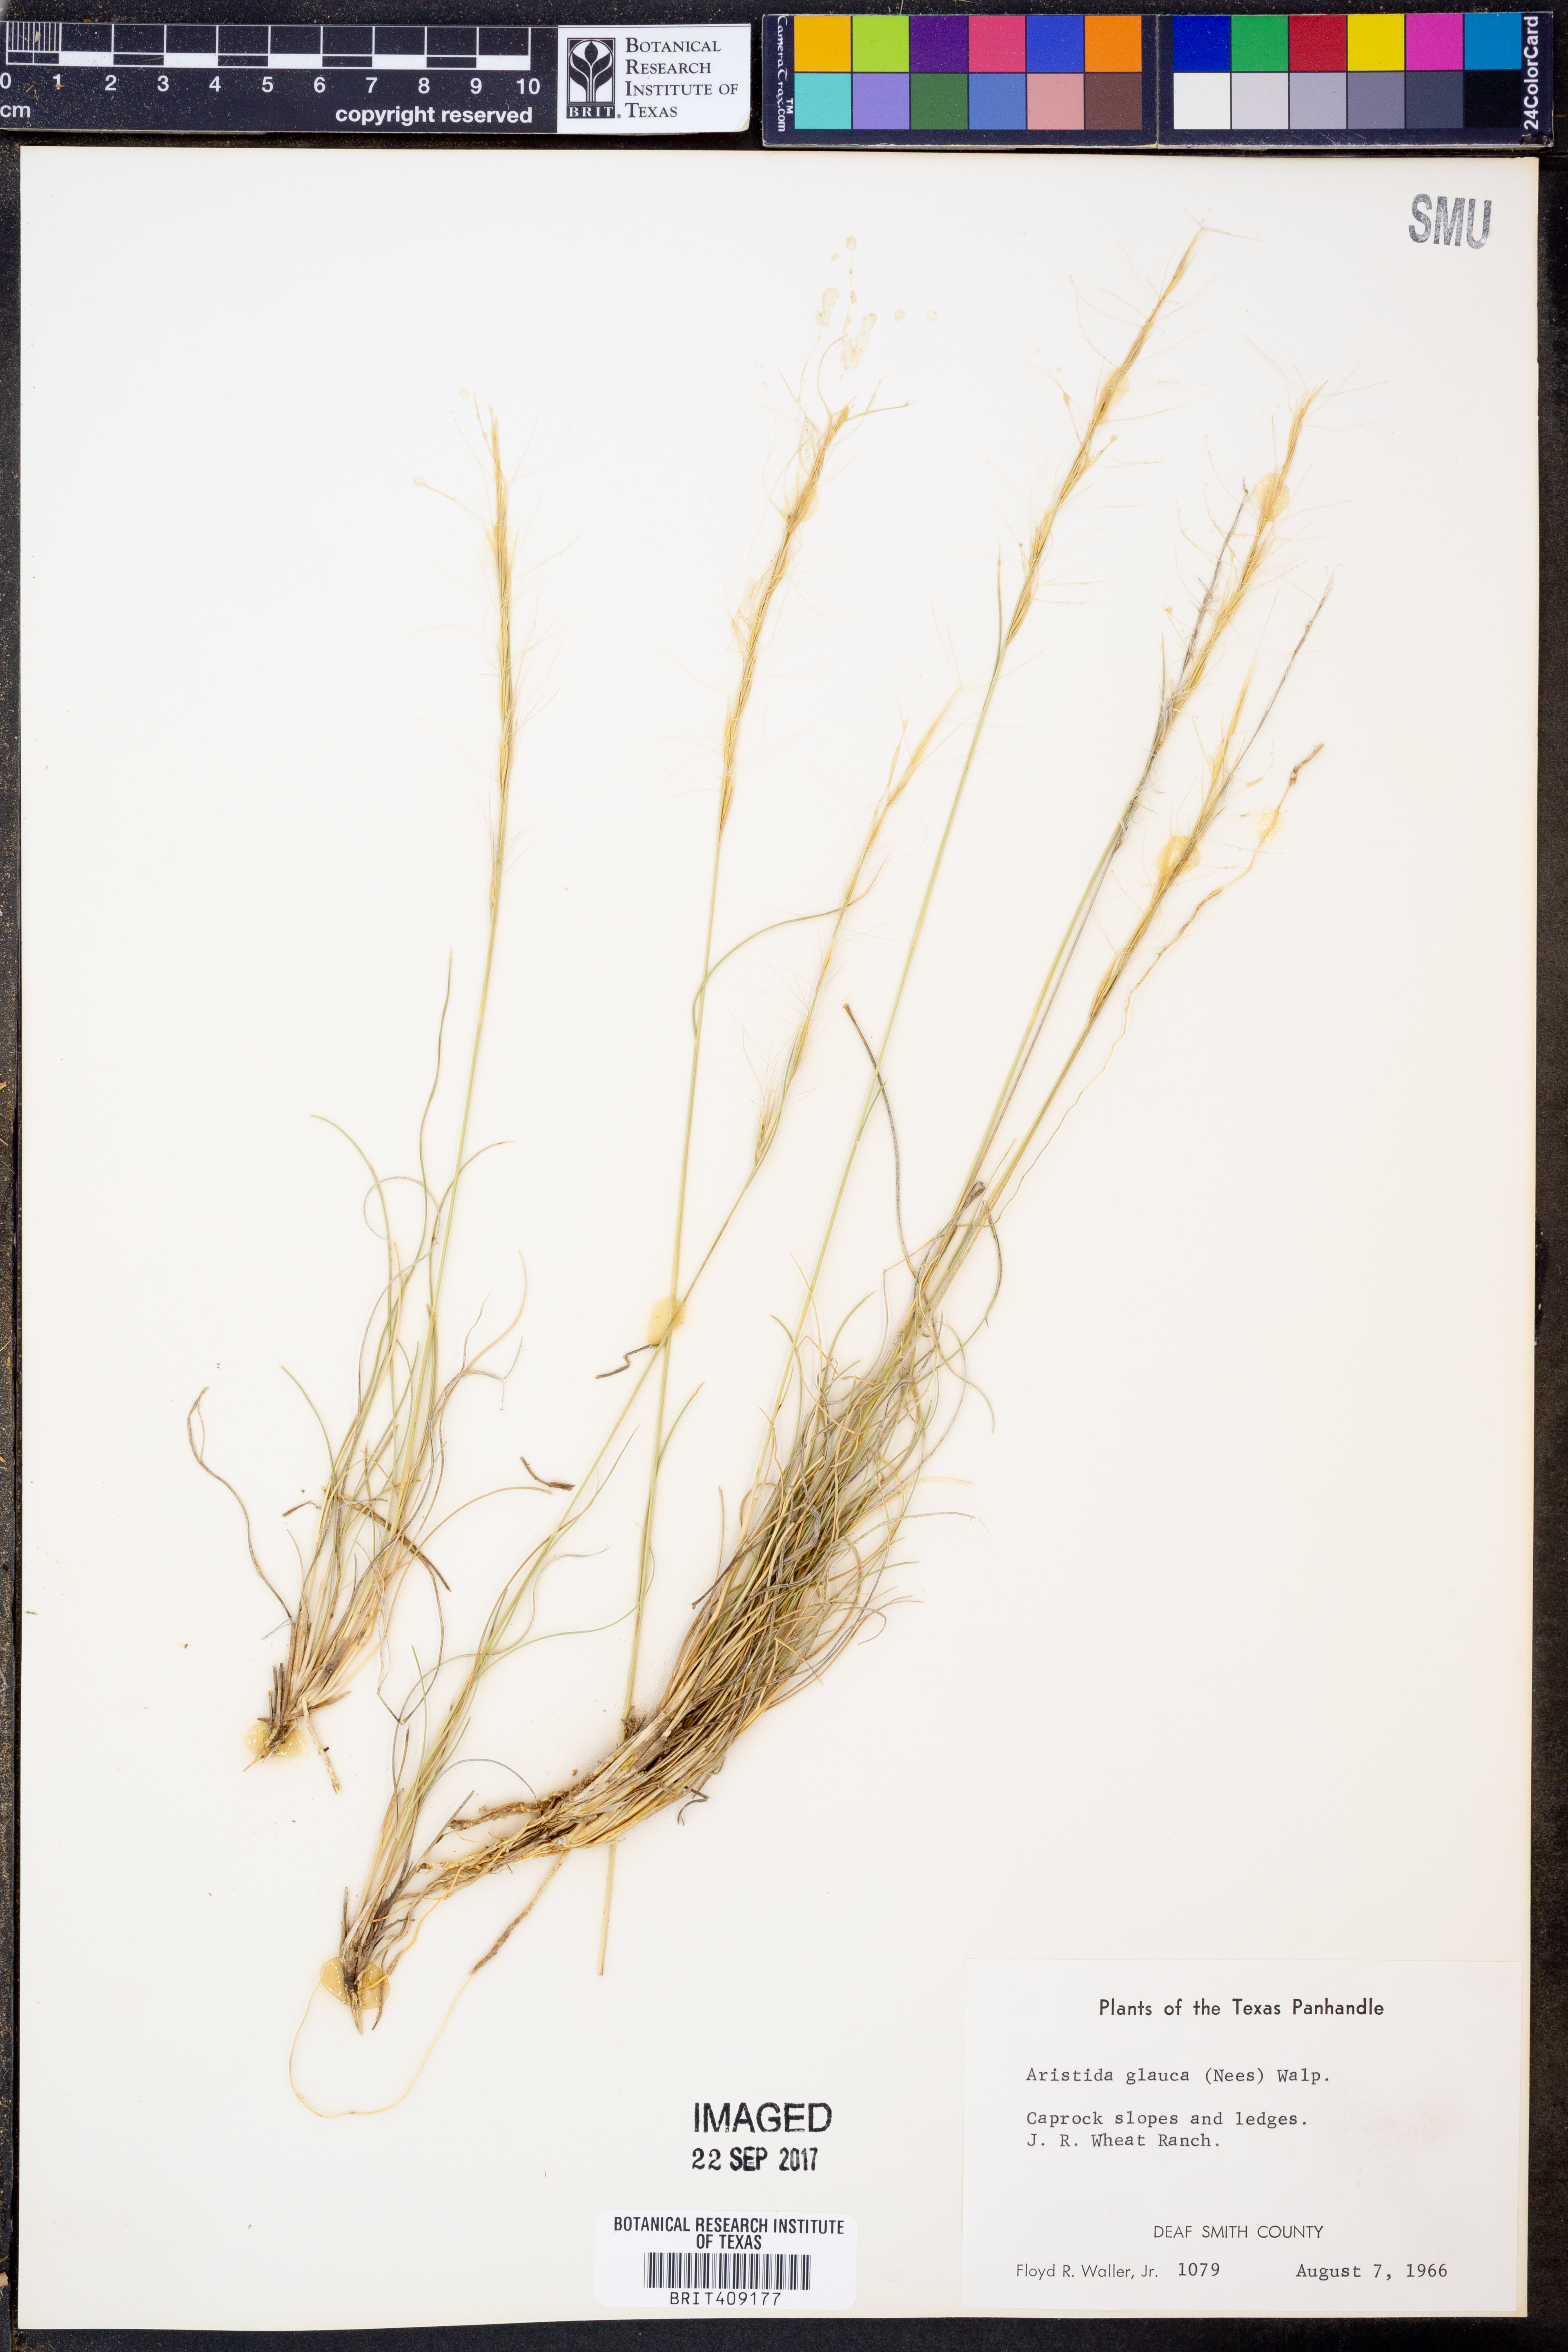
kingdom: Plantae
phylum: Tracheophyta
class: Liliopsida
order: Poales
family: Poaceae
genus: Aristida
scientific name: Aristida glauca
